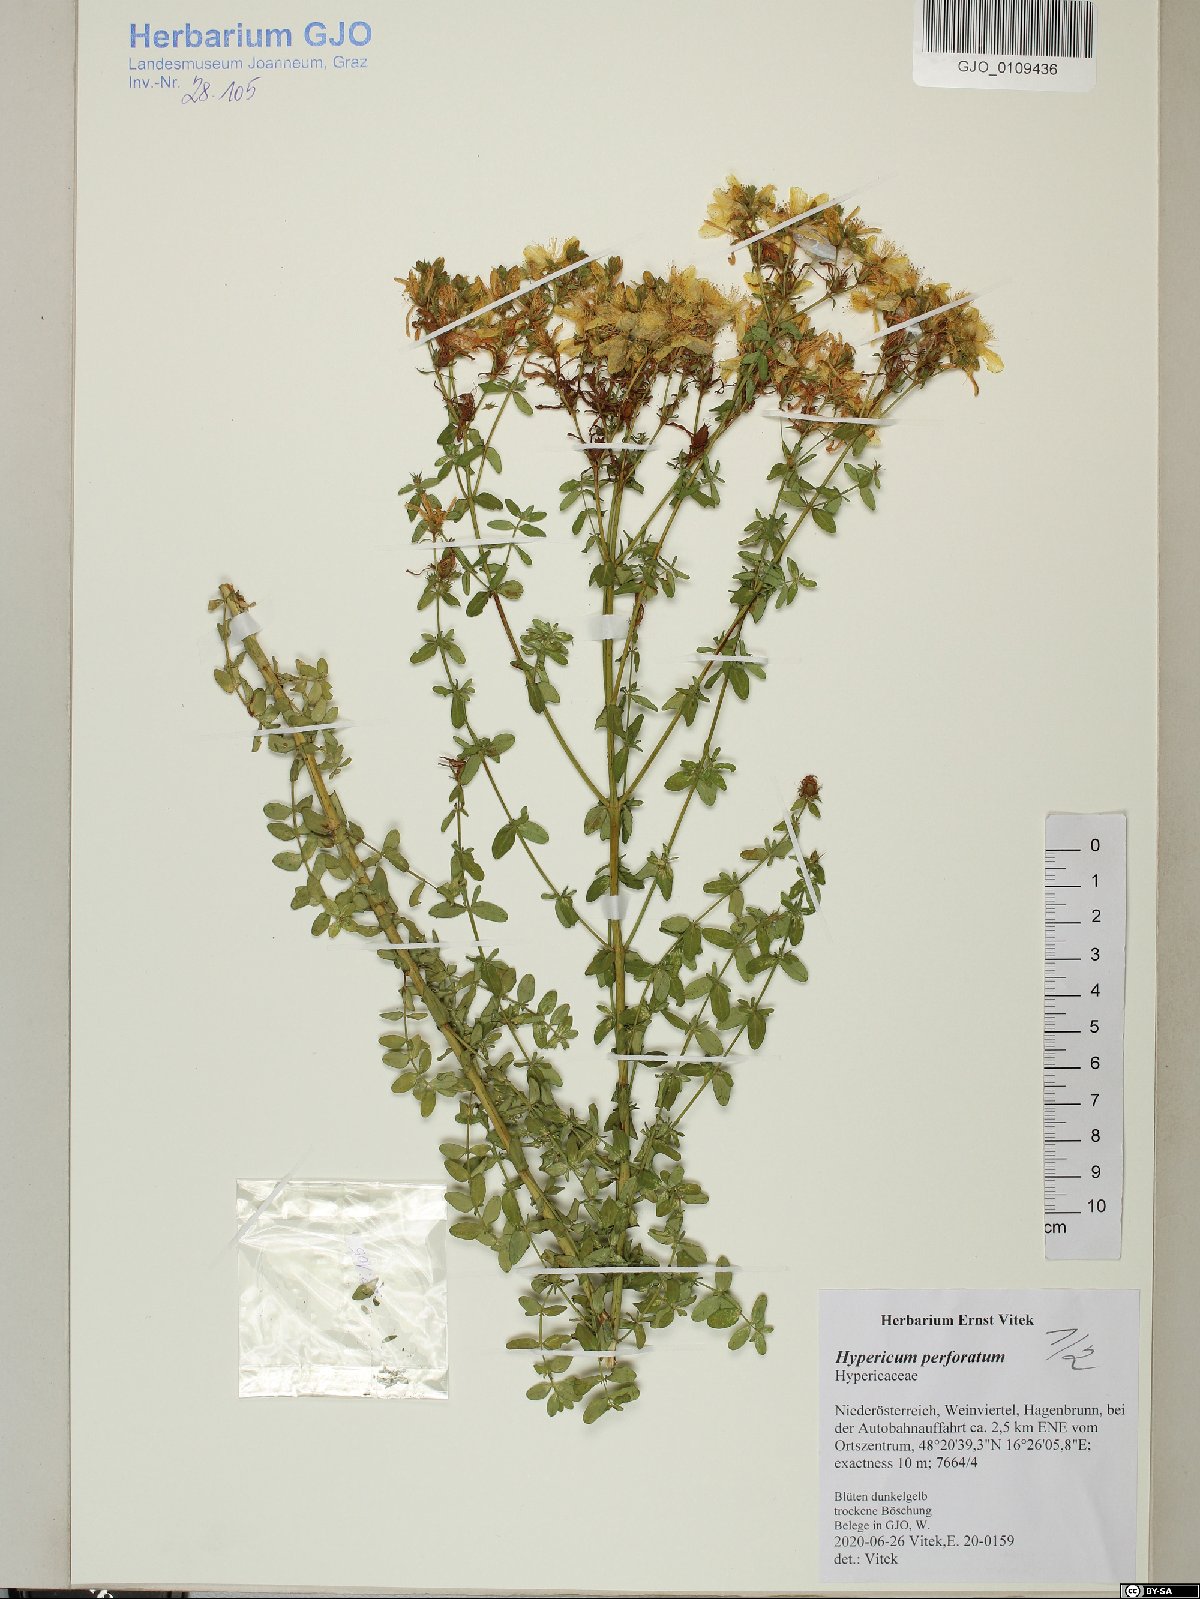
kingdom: Plantae
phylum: Tracheophyta
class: Magnoliopsida
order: Malpighiales
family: Hypericaceae
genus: Hypericum
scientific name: Hypericum perforatum
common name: Common st. johnswort
